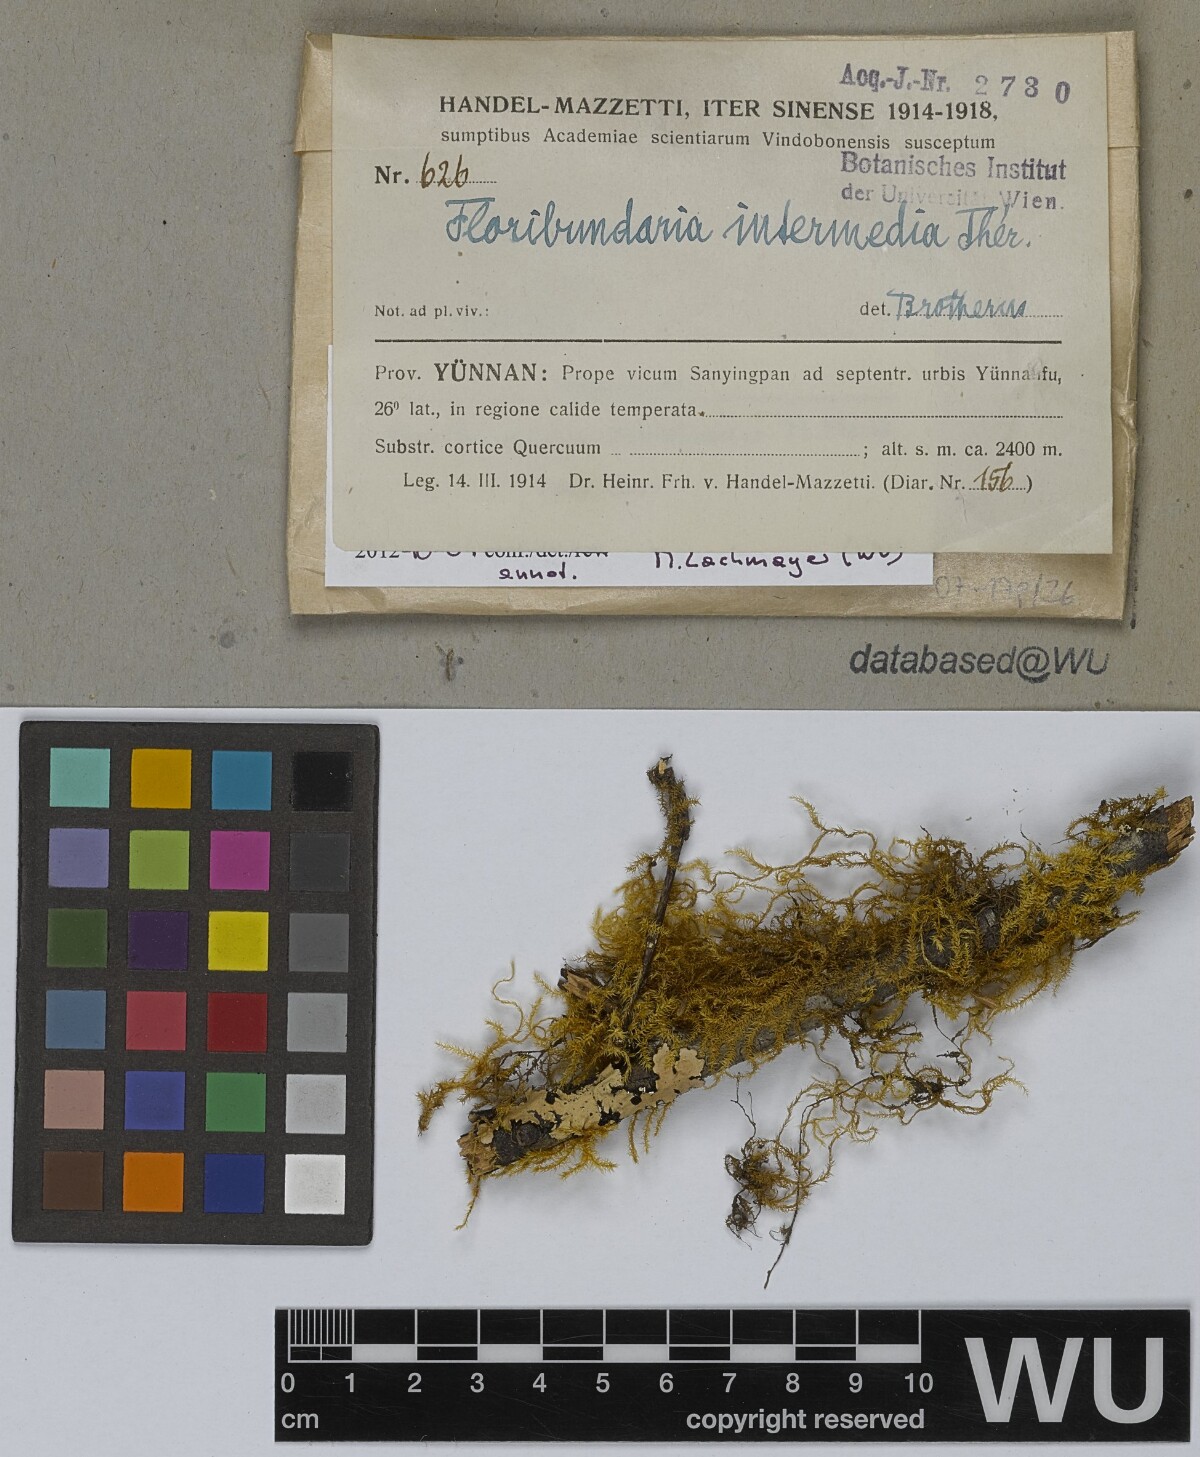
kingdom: Plantae
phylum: Bryophyta
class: Bryopsida
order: Hypnales
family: Meteoriaceae
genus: Floribundaria
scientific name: Floribundaria intermedia
